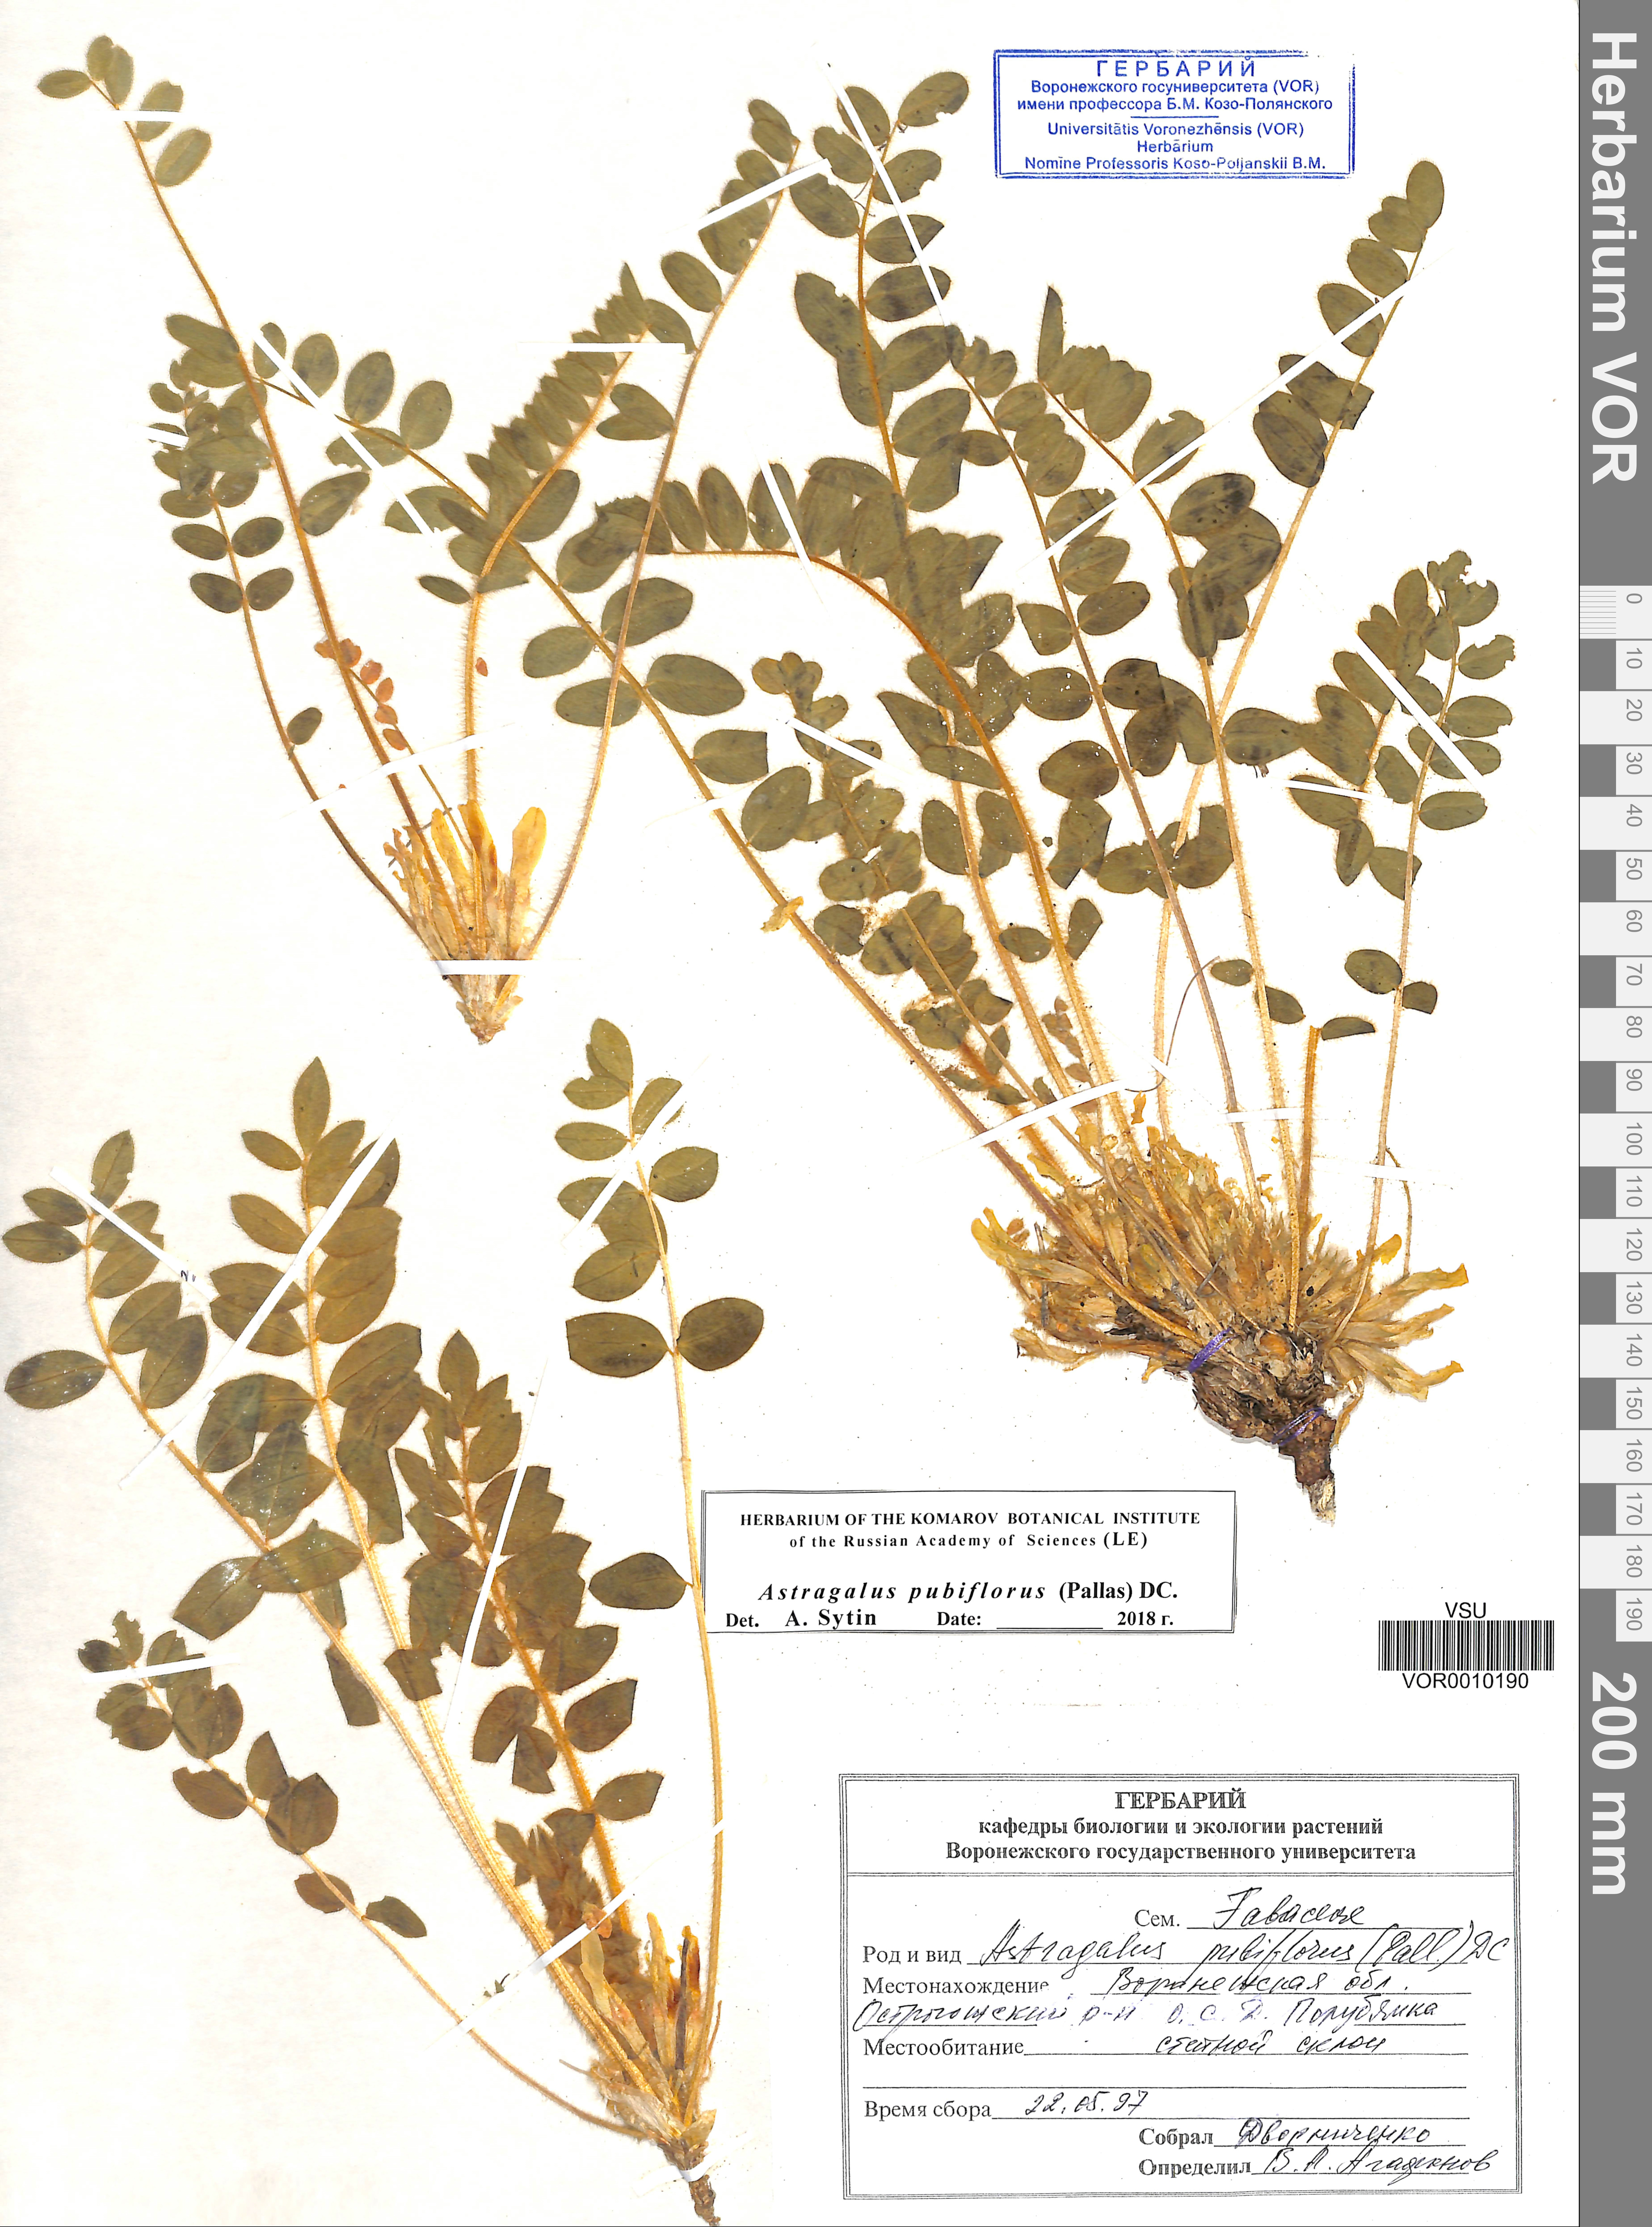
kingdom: Plantae
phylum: Tracheophyta
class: Magnoliopsida
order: Fabales
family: Fabaceae
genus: Astragalus
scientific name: Astragalus exscapus
